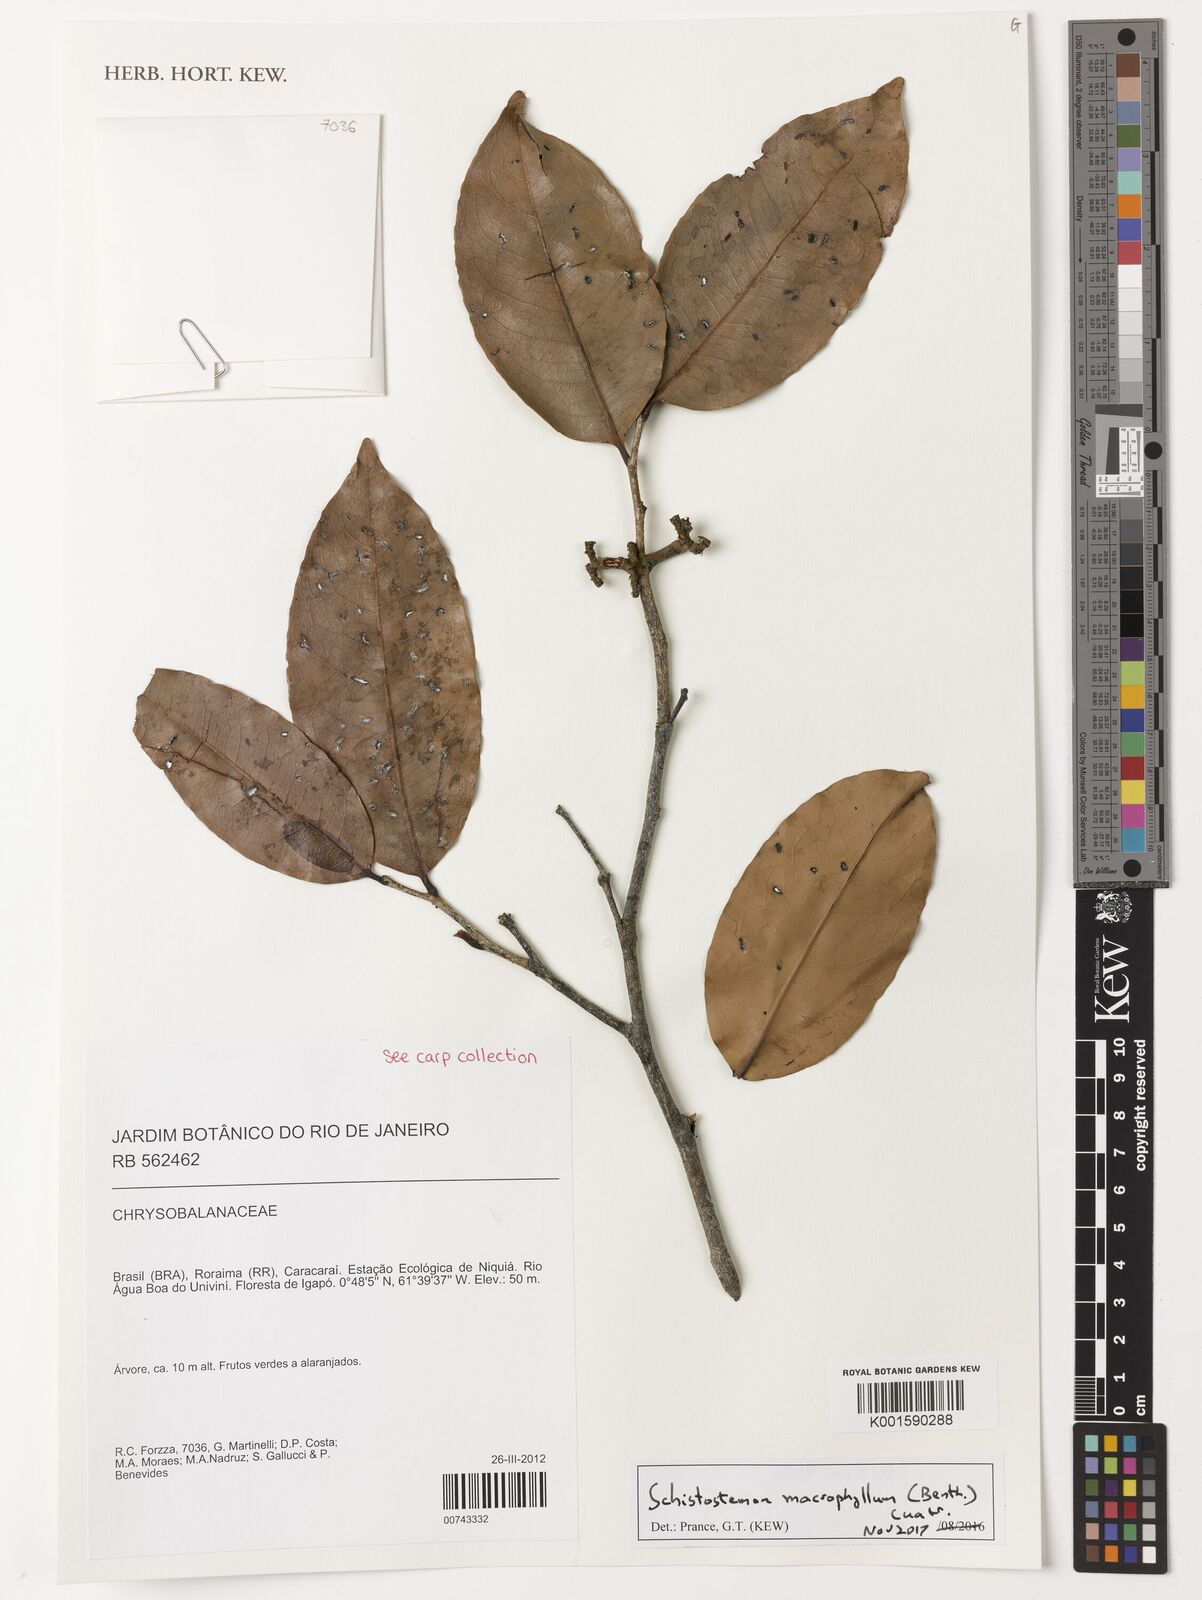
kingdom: Plantae
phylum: Tracheophyta
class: Magnoliopsida
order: Malpighiales
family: Chrysobalanaceae
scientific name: Chrysobalanaceae
